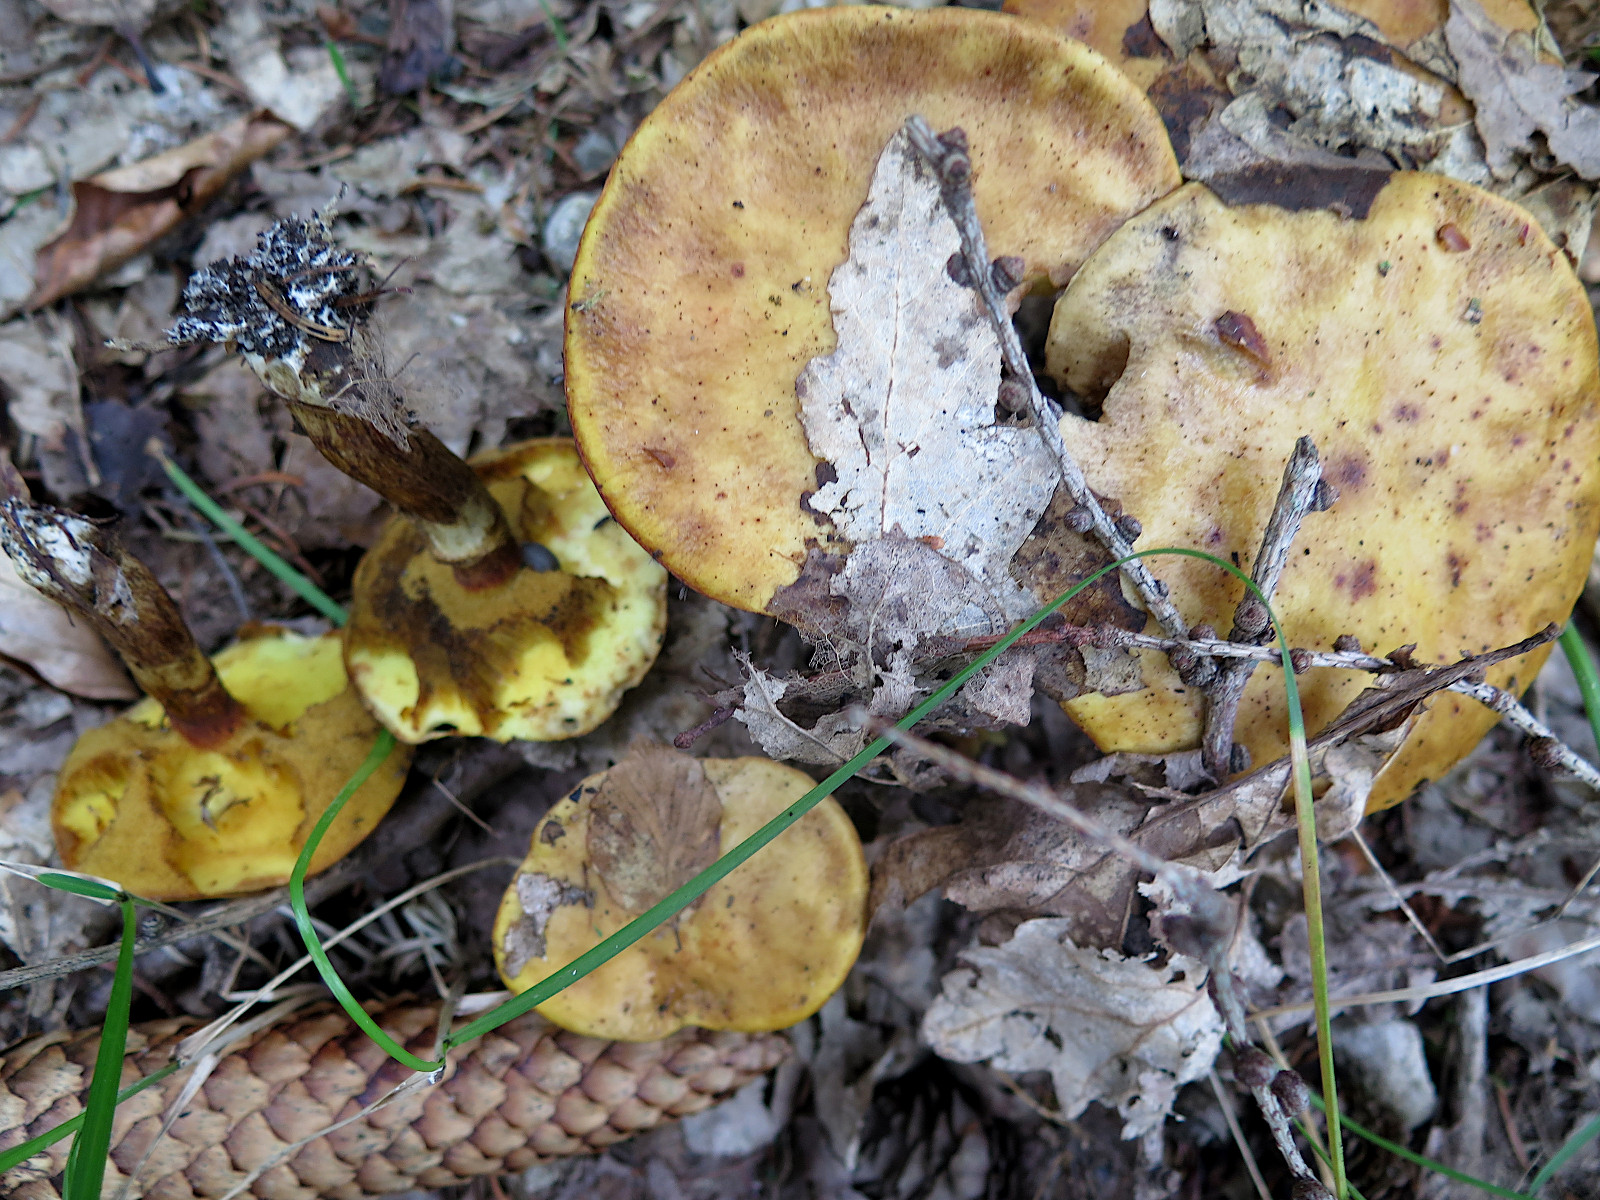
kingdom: Fungi
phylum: Basidiomycota
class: Agaricomycetes
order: Boletales
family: Suillaceae
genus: Suillus
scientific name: Suillus grevillei
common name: lærke-slimrørhat
